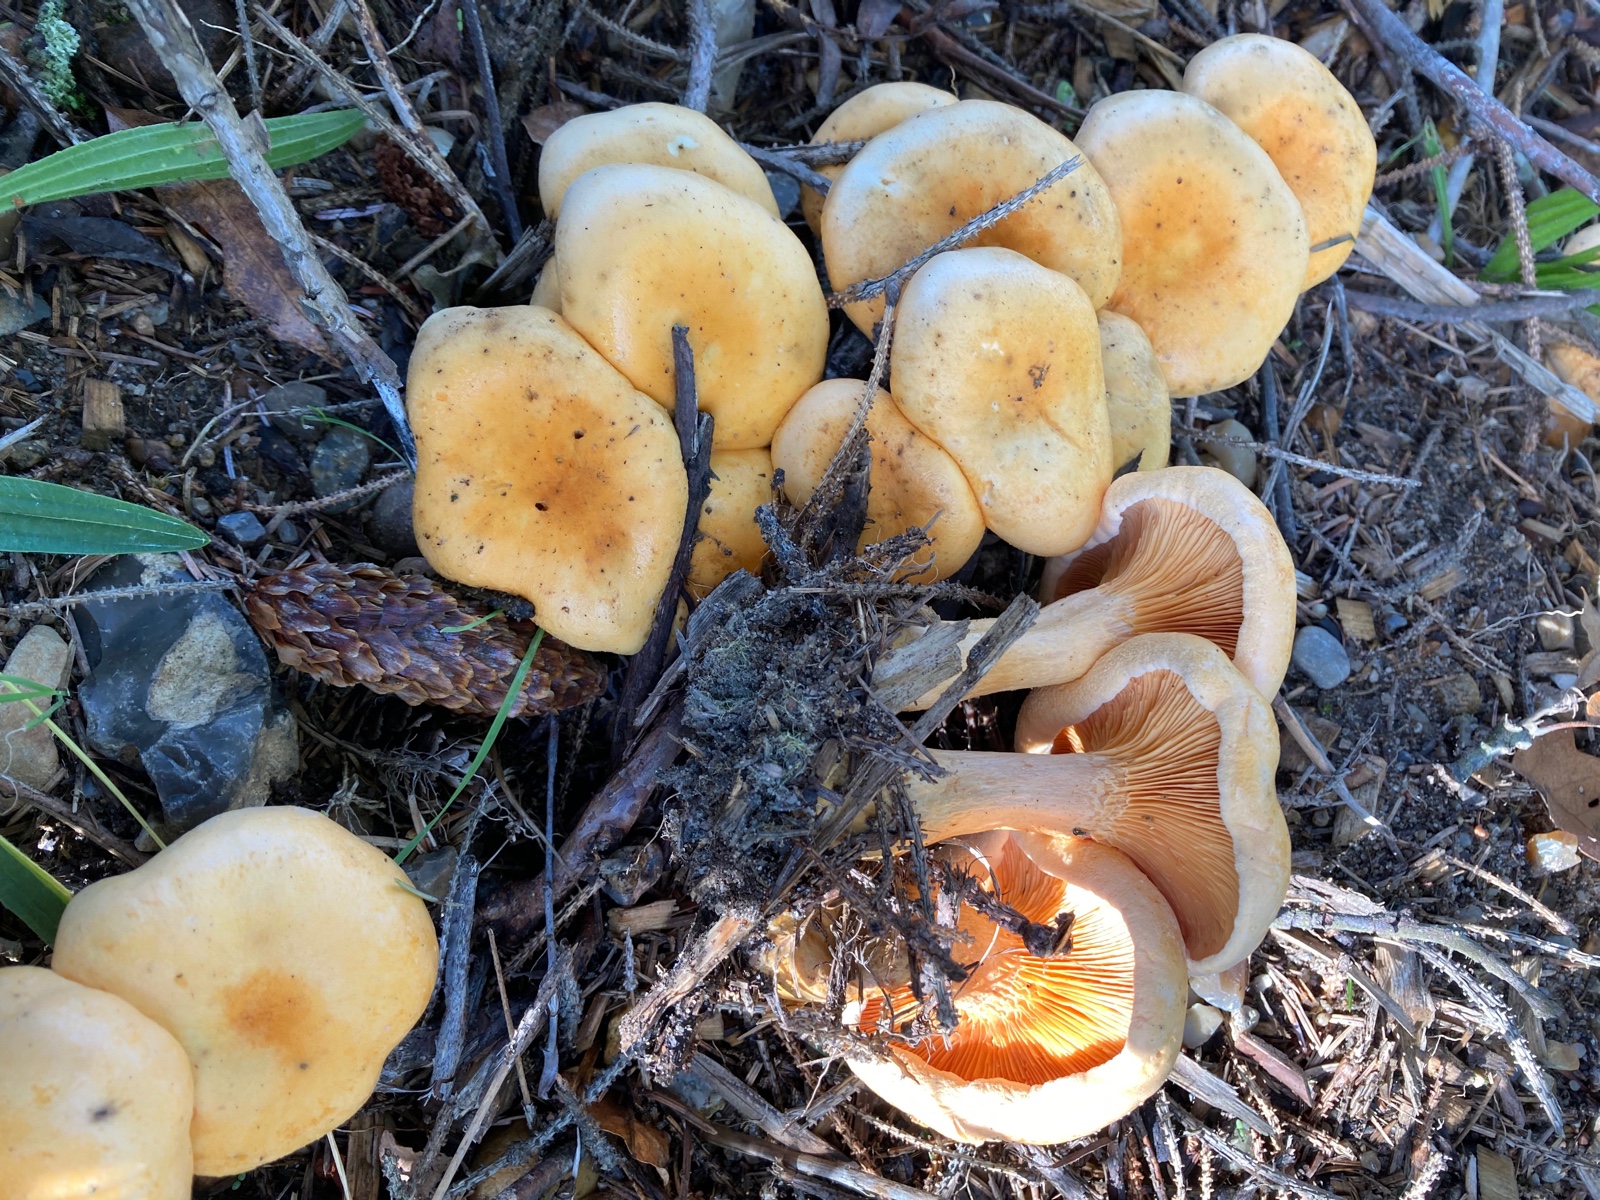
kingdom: Fungi
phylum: Basidiomycota
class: Agaricomycetes
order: Boletales
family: Hygrophoropsidaceae
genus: Hygrophoropsis
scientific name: Hygrophoropsis aurantiaca
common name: almindelig orangekantarel
